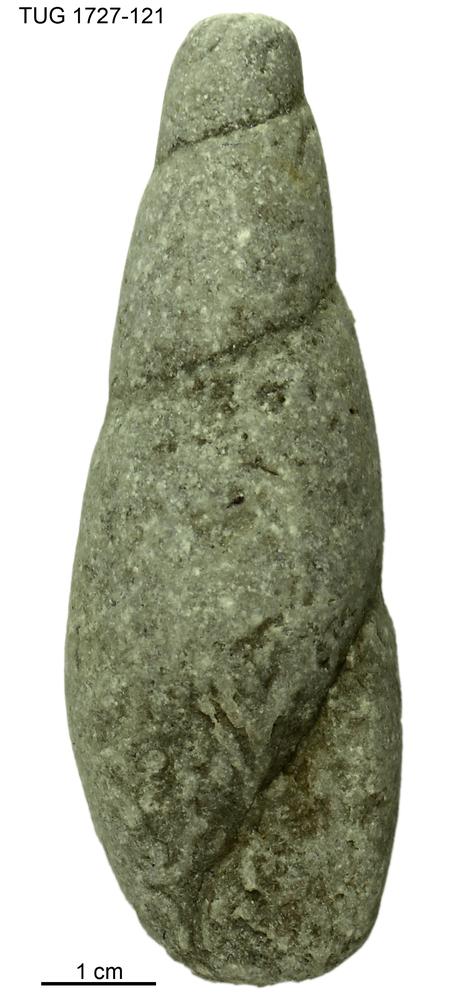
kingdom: Animalia
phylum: Mollusca
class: Gastropoda
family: Subulitidae
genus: Subulites
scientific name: Subulites Phasianella gigas
